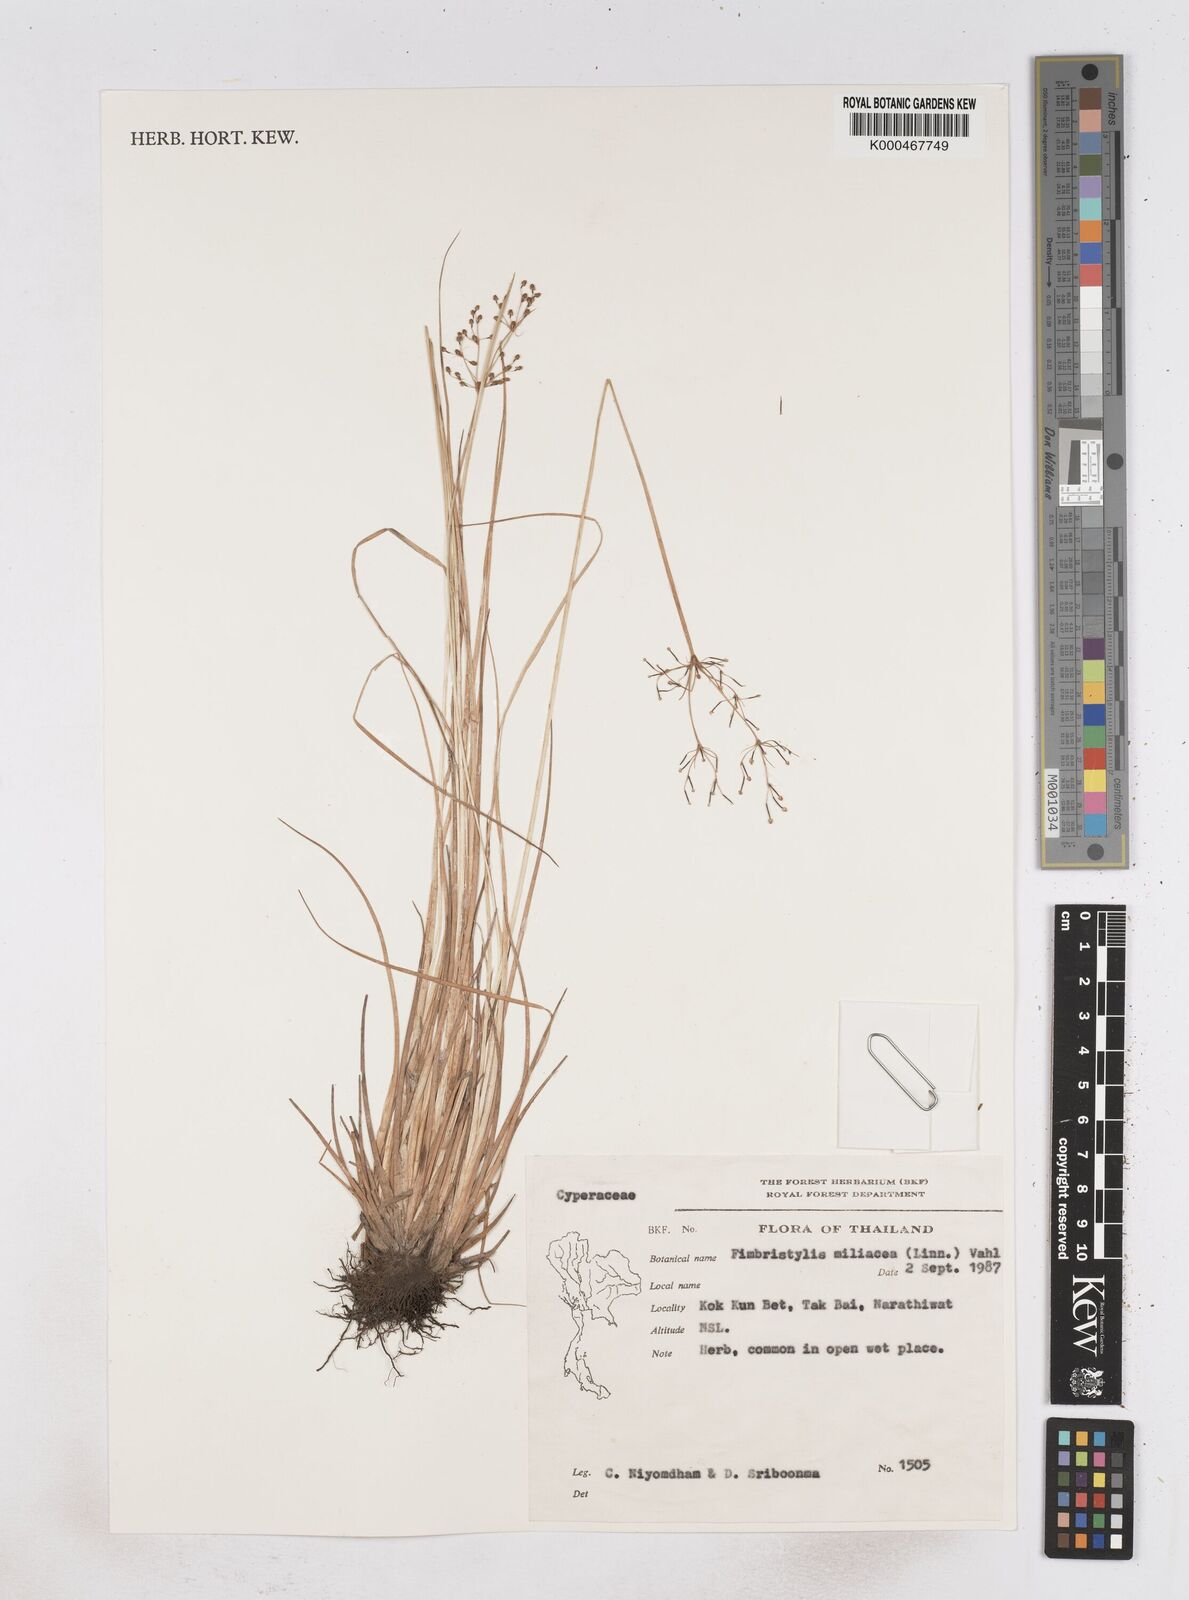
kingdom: Plantae
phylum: Tracheophyta
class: Liliopsida
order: Poales
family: Cyperaceae
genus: Fimbristylis
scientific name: Fimbristylis quinquangularis
